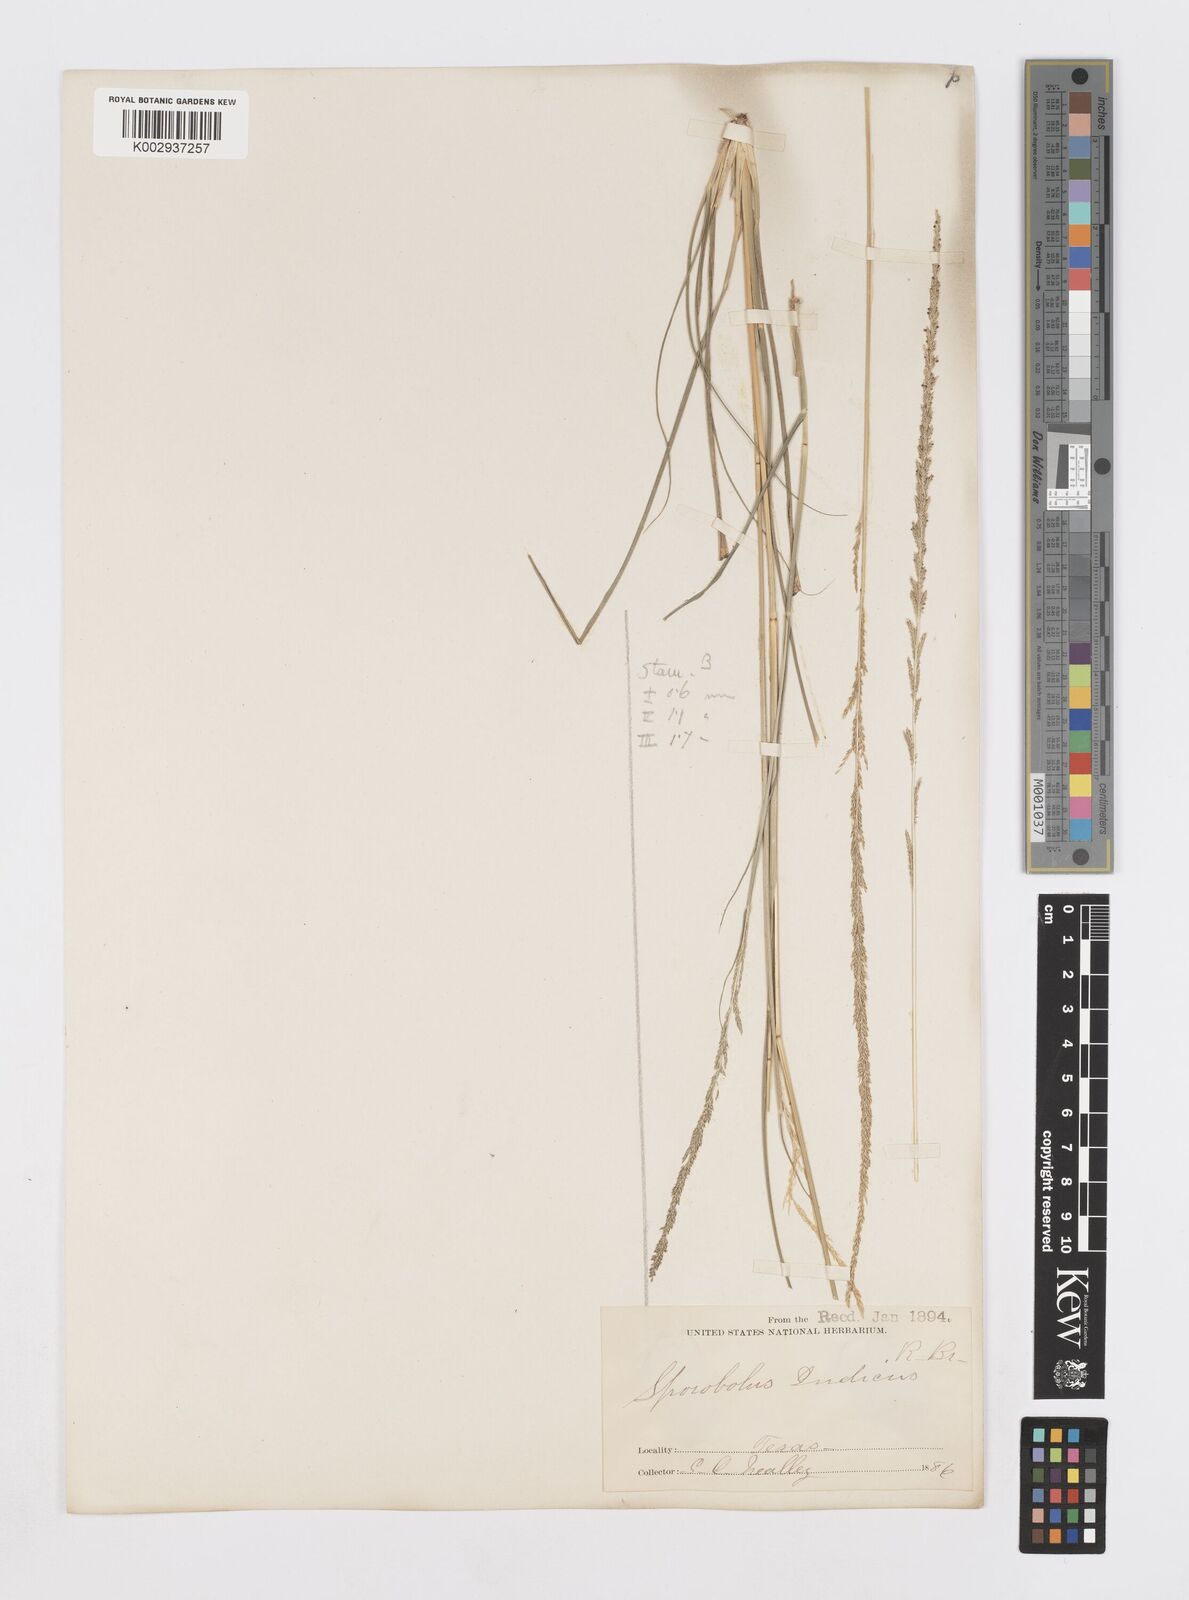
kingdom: Plantae
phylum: Tracheophyta
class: Liliopsida
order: Poales
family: Poaceae
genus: Sporobolus
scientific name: Sporobolus indicus
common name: Smut grass
